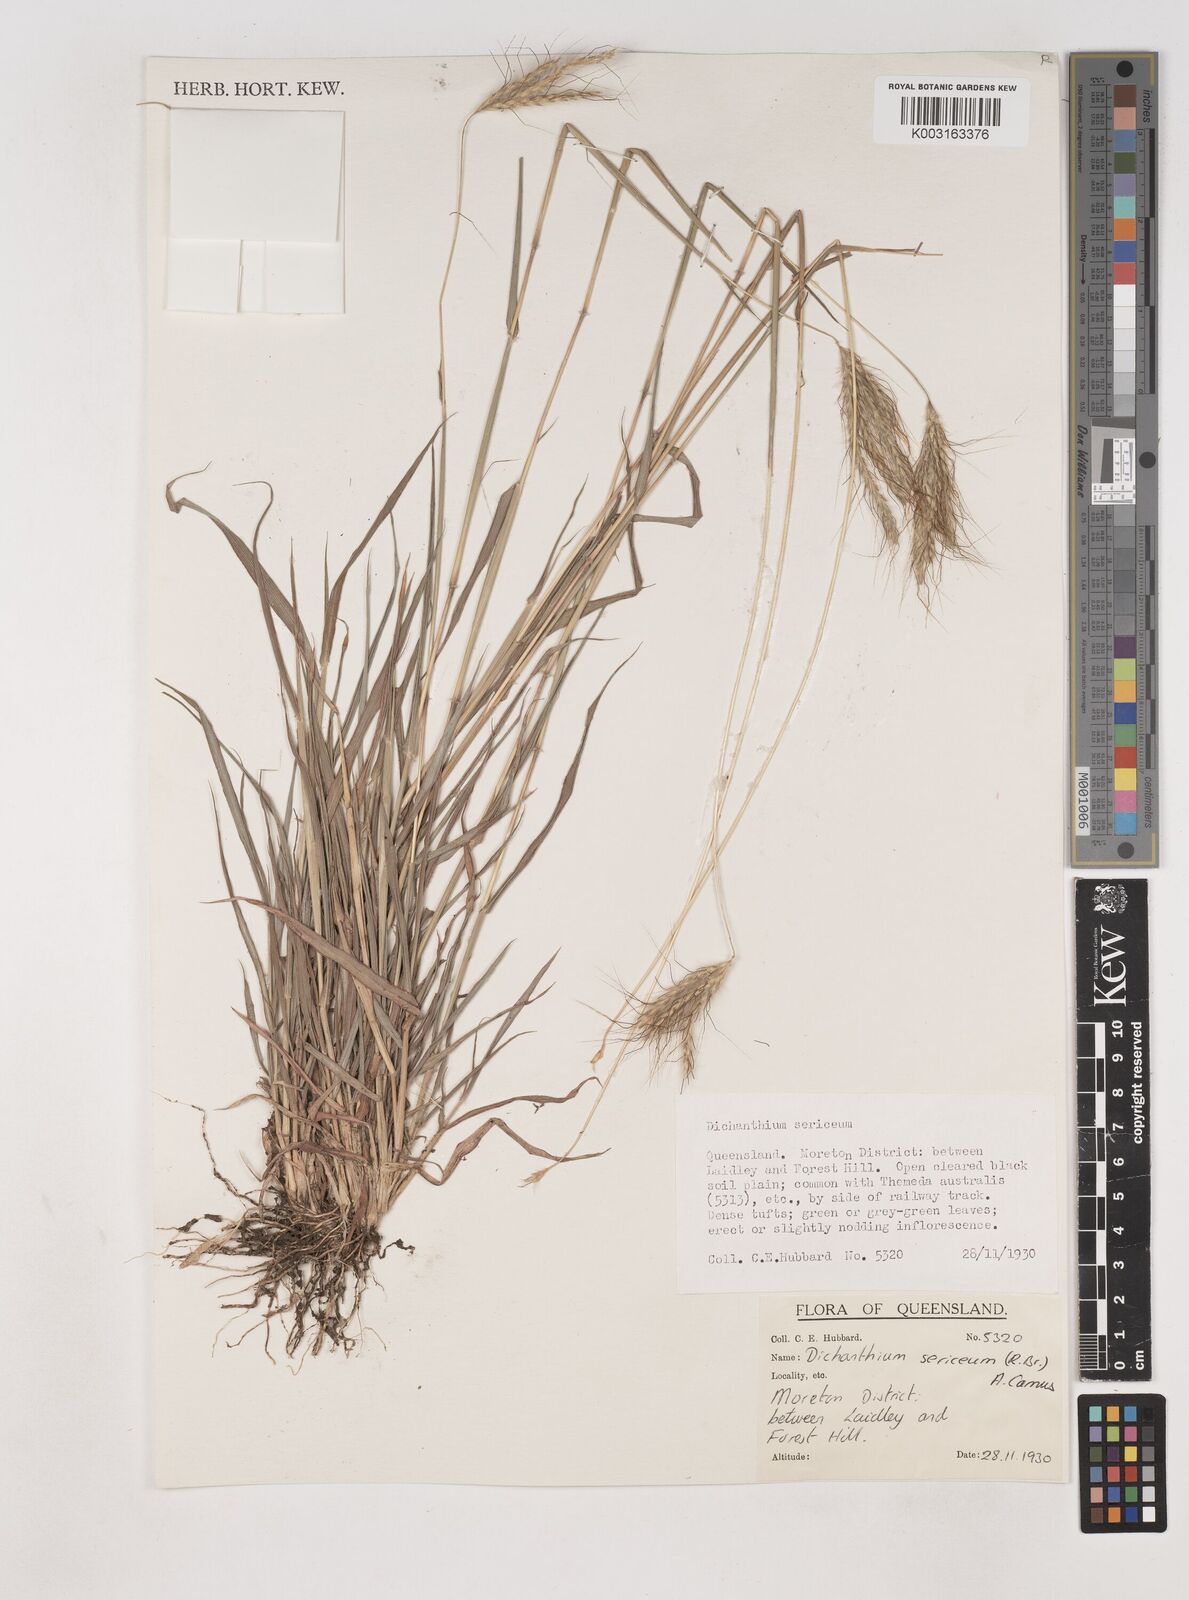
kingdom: Plantae
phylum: Tracheophyta
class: Liliopsida
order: Poales
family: Poaceae
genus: Dichanthium
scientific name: Dichanthium sericeum
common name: Silky bluestem
